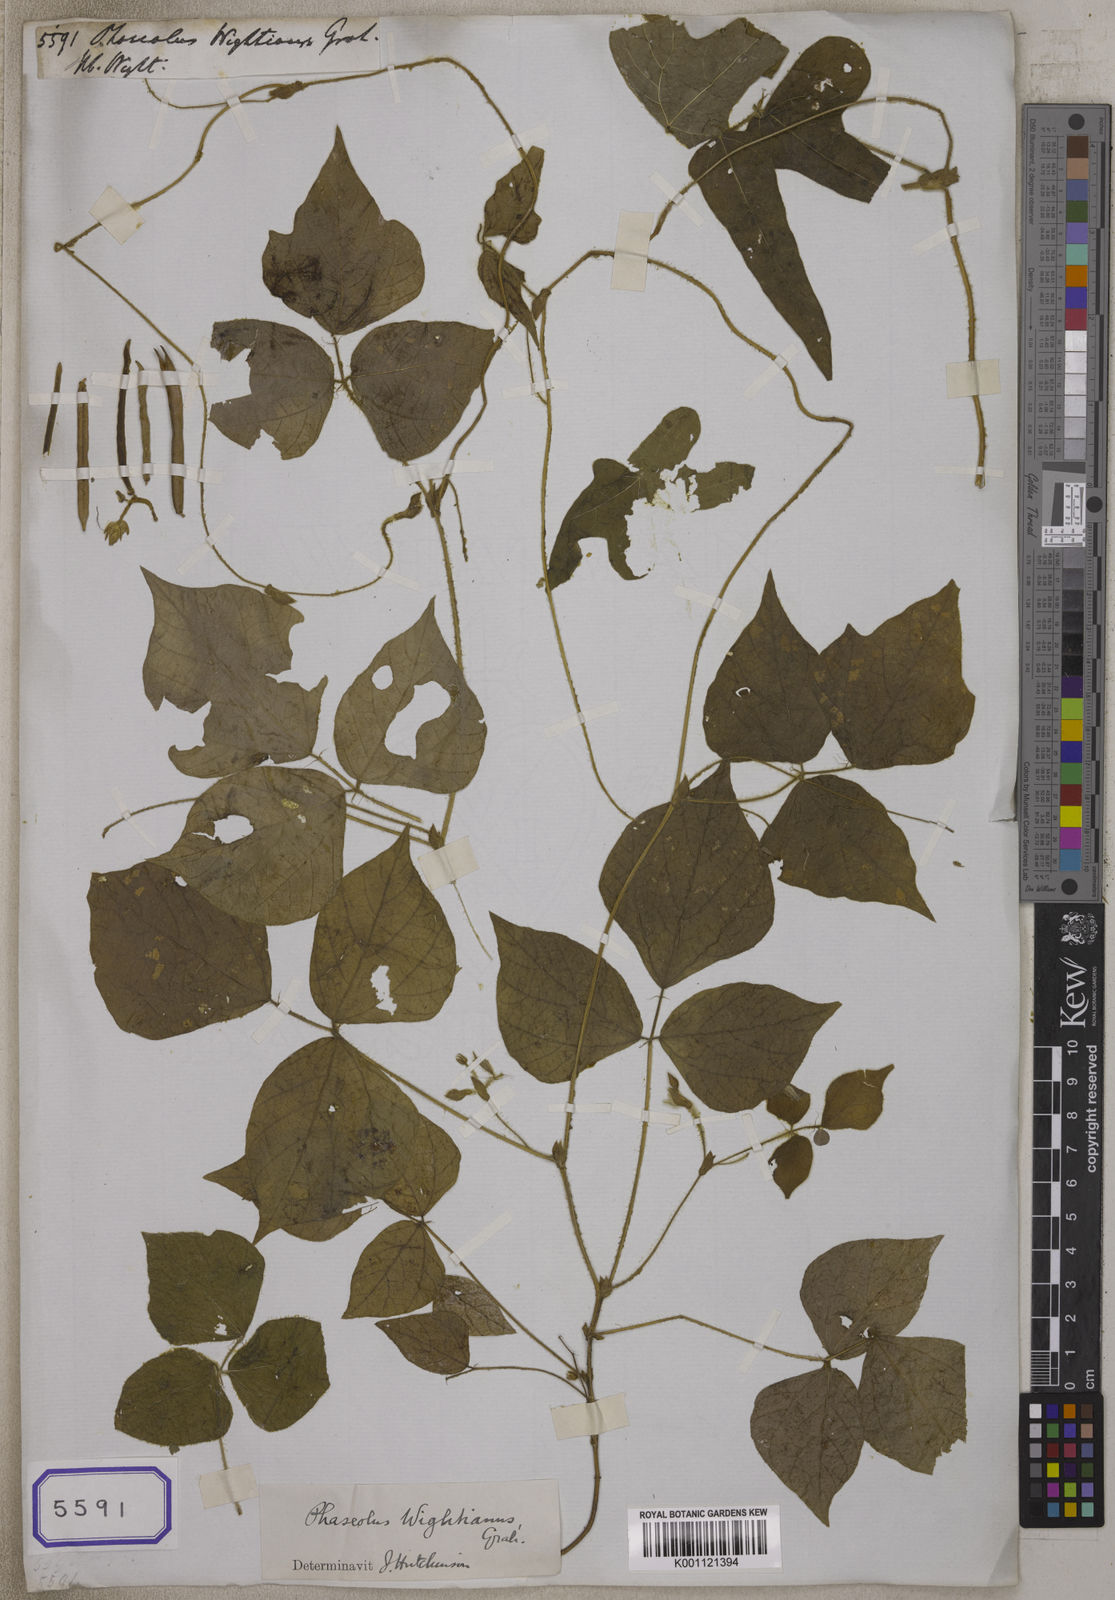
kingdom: Plantae
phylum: Tracheophyta
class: Magnoliopsida
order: Fabales
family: Fabaceae
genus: Vigna
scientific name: Vigna mungo
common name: Black gram
